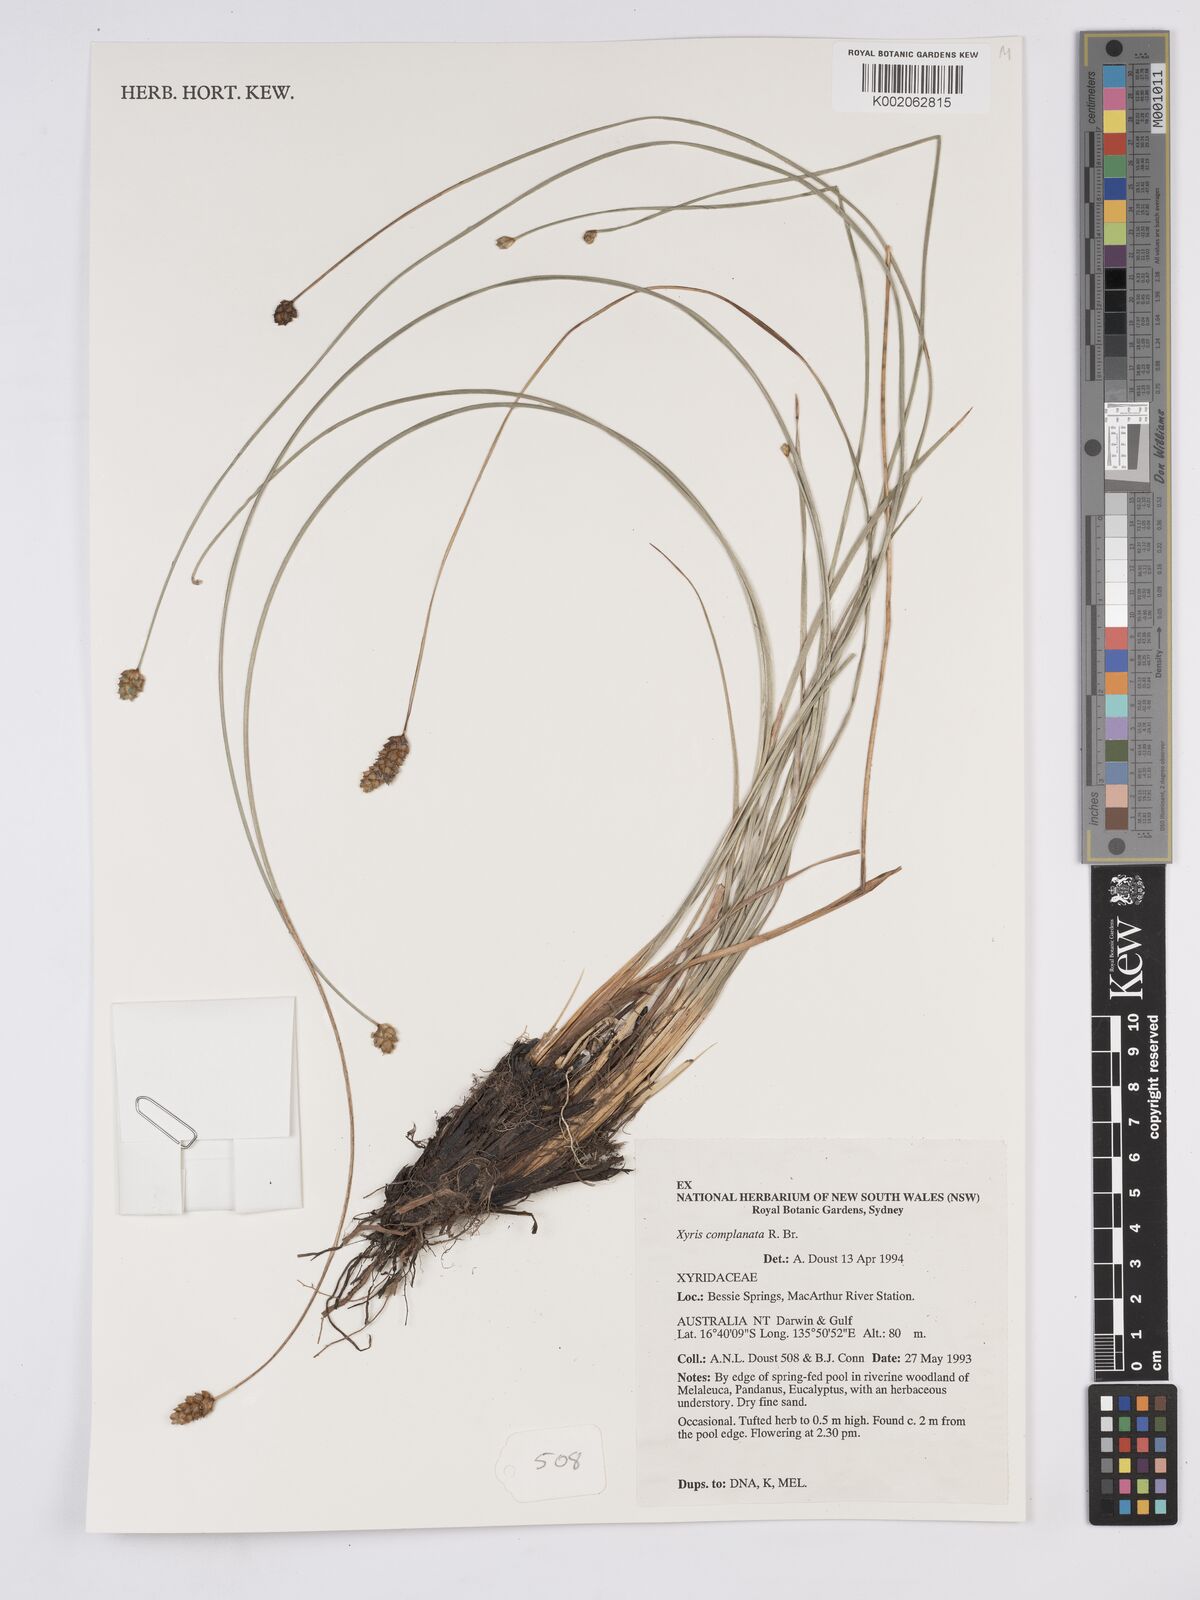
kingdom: Plantae
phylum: Tracheophyta
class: Liliopsida
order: Poales
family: Xyridaceae
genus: Xyris
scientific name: Xyris complanata
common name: Hawai'i yelloweyed grass
